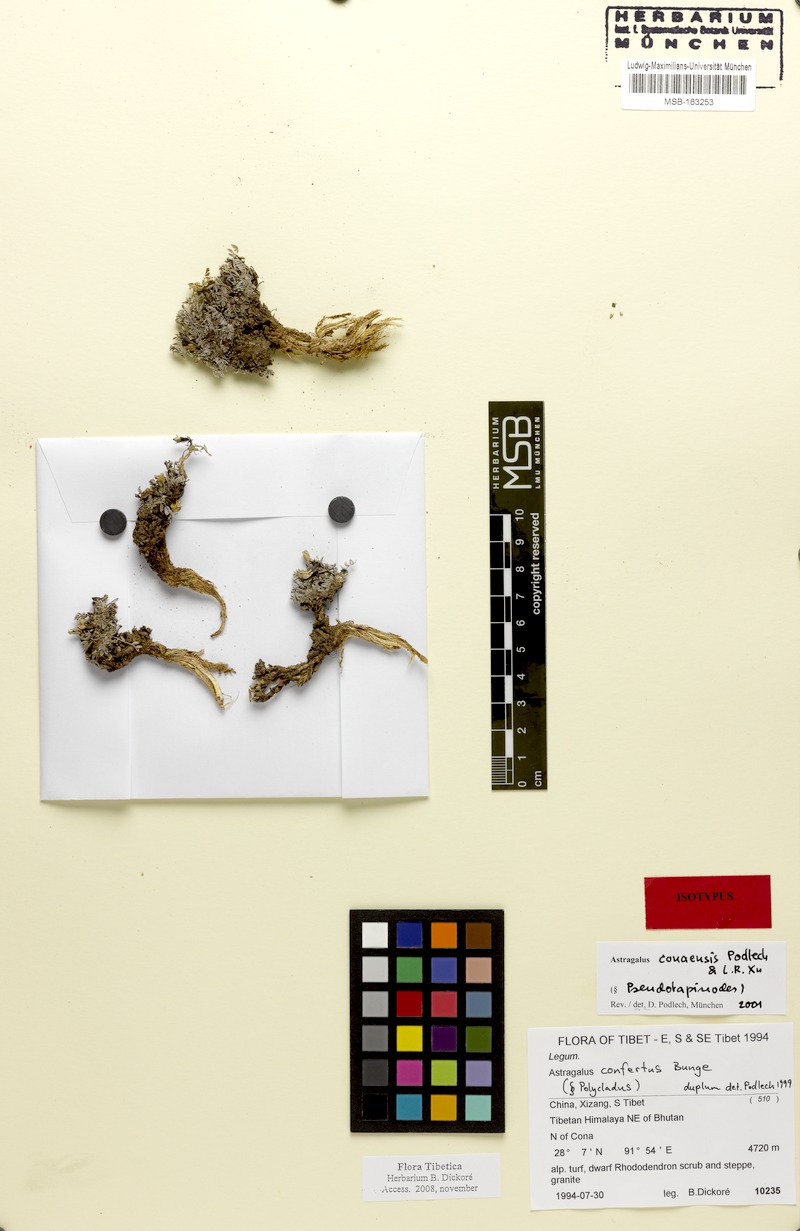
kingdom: Plantae
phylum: Tracheophyta
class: Magnoliopsida
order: Fabales
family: Fabaceae
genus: Astragalus
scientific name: Astragalus conaensis
